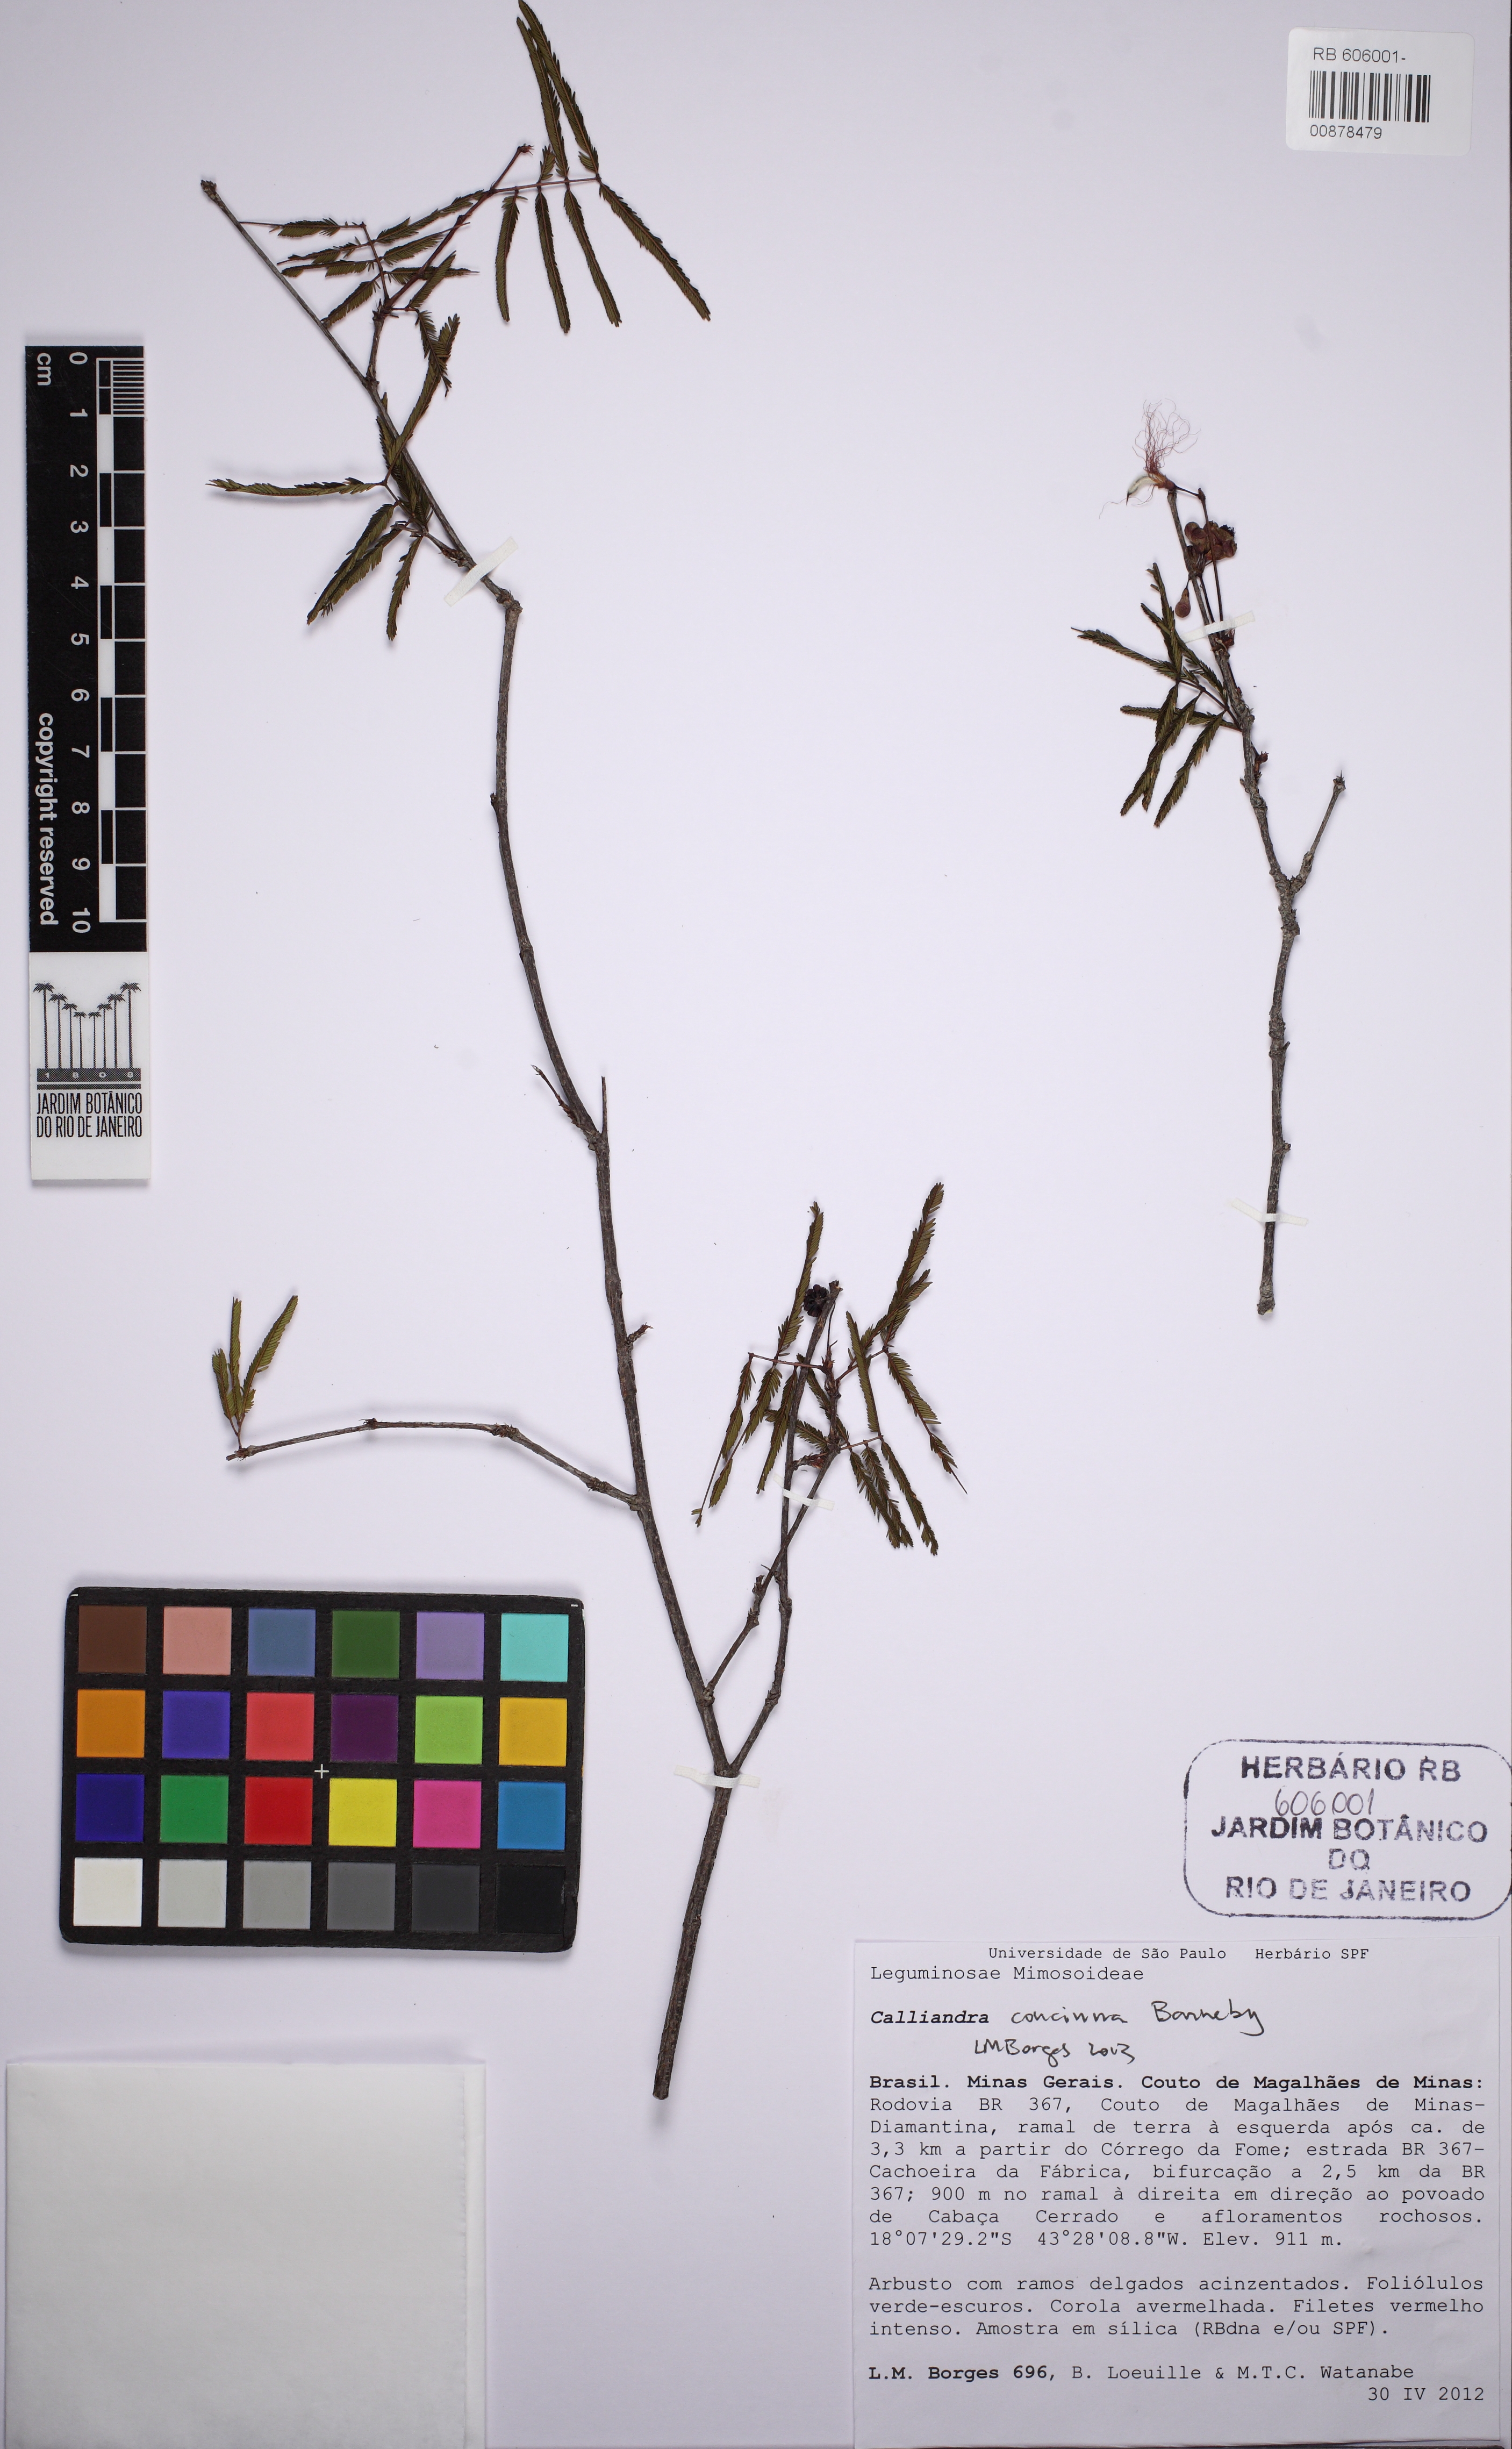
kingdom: Plantae
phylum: Tracheophyta
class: Magnoliopsida
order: Fabales
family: Fabaceae
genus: Calliandra
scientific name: Calliandra concinna
